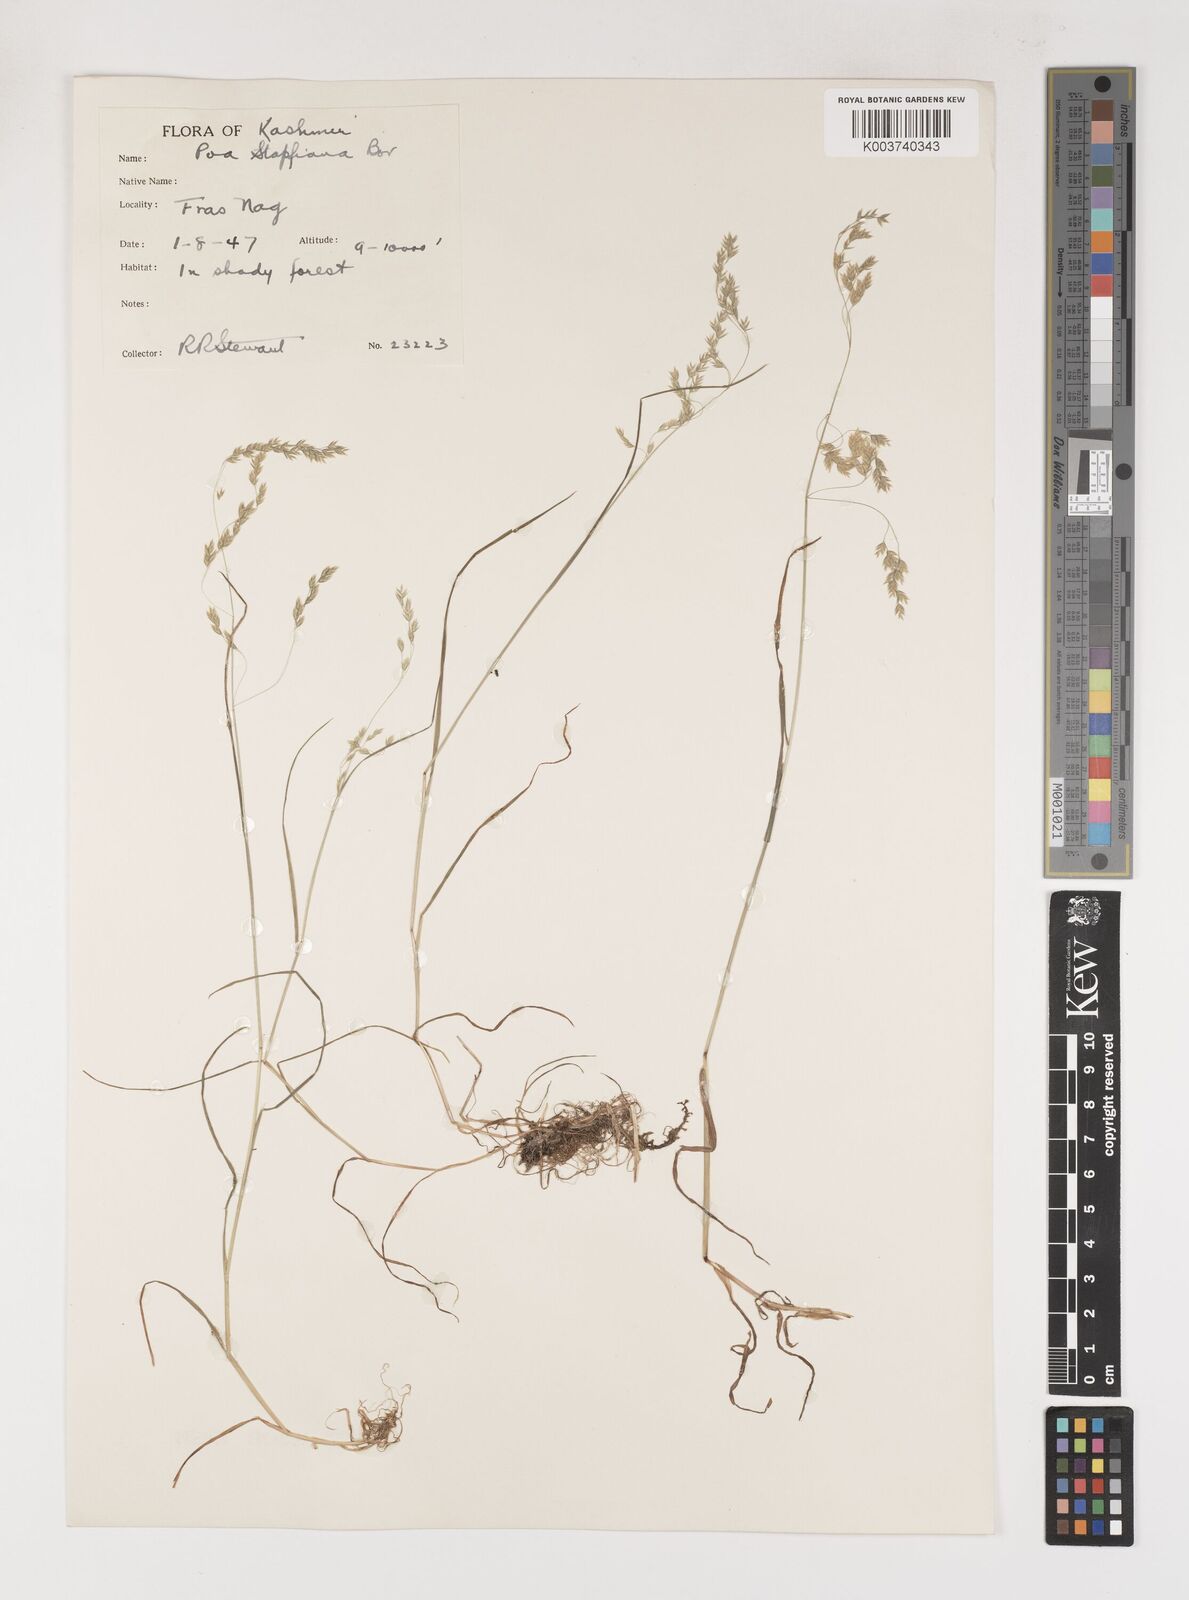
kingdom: Plantae
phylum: Tracheophyta
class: Liliopsida
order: Poales
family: Poaceae
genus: Poa
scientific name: Poa stapfiana
